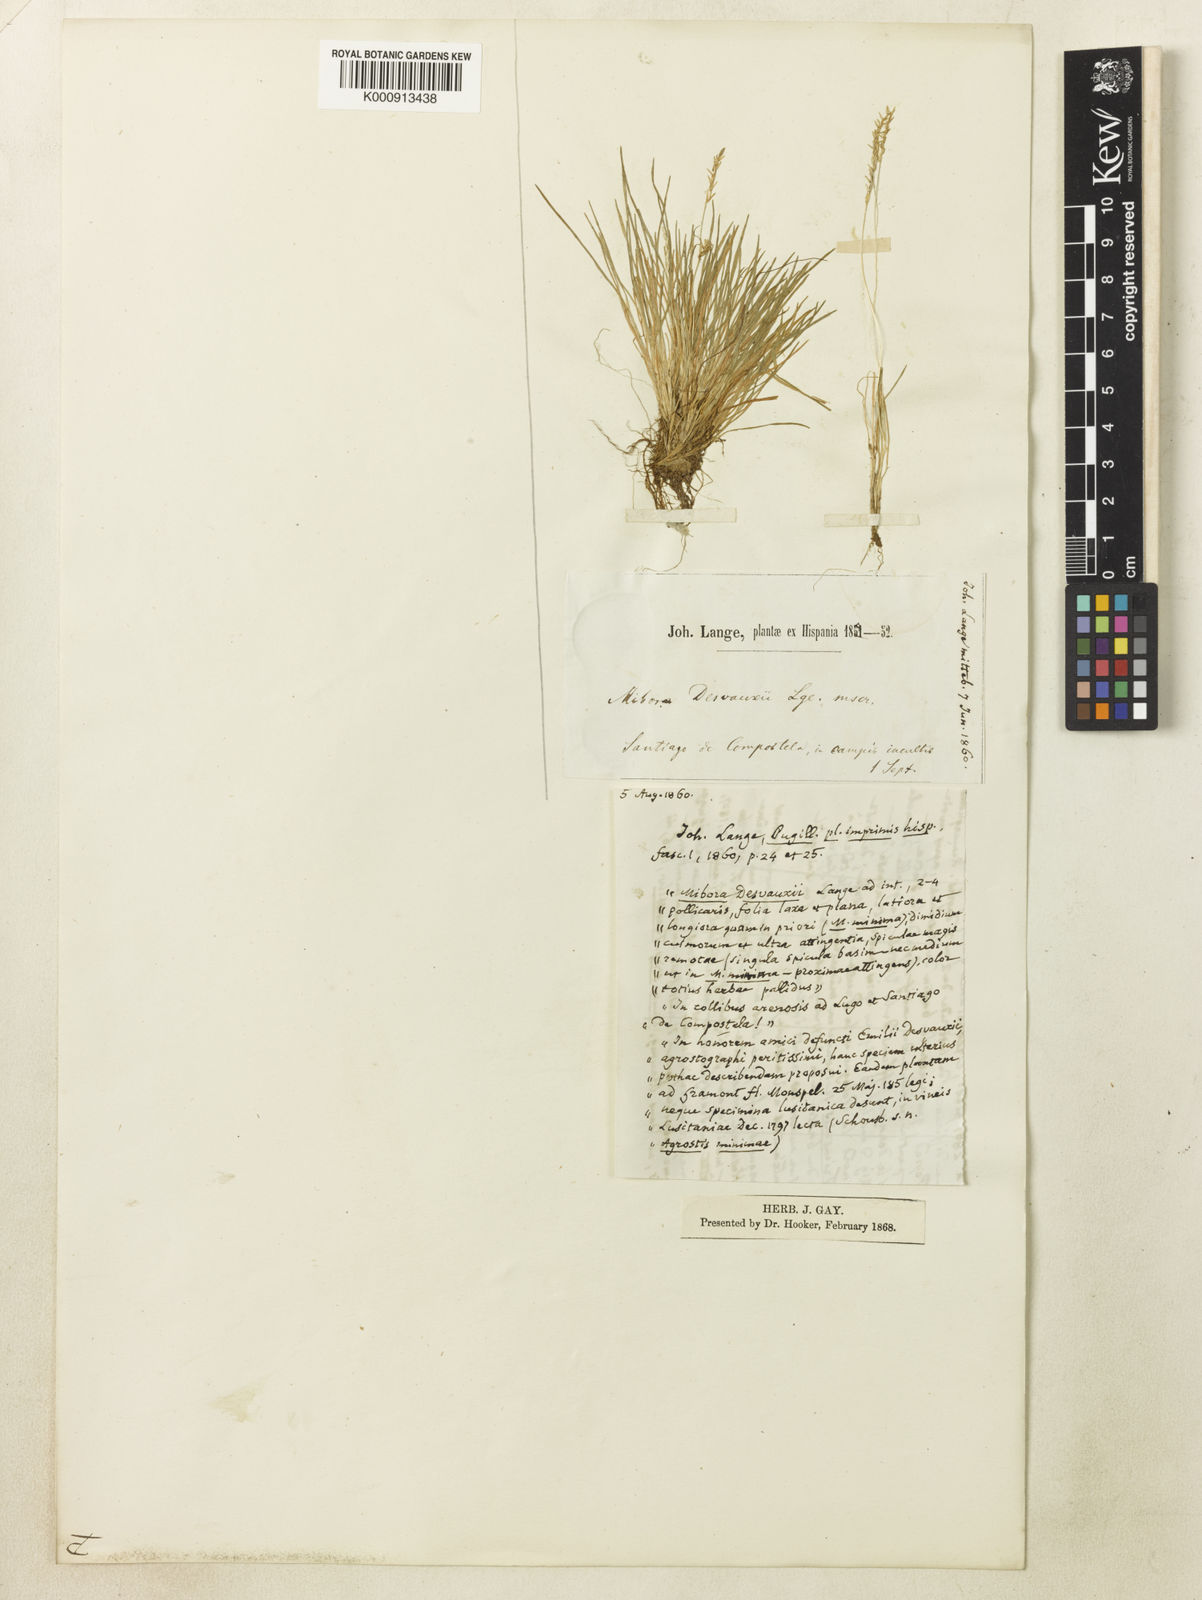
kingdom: Plantae
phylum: Tracheophyta
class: Liliopsida
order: Poales
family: Poaceae
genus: Mibora
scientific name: Mibora minima
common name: Early sand-grass
